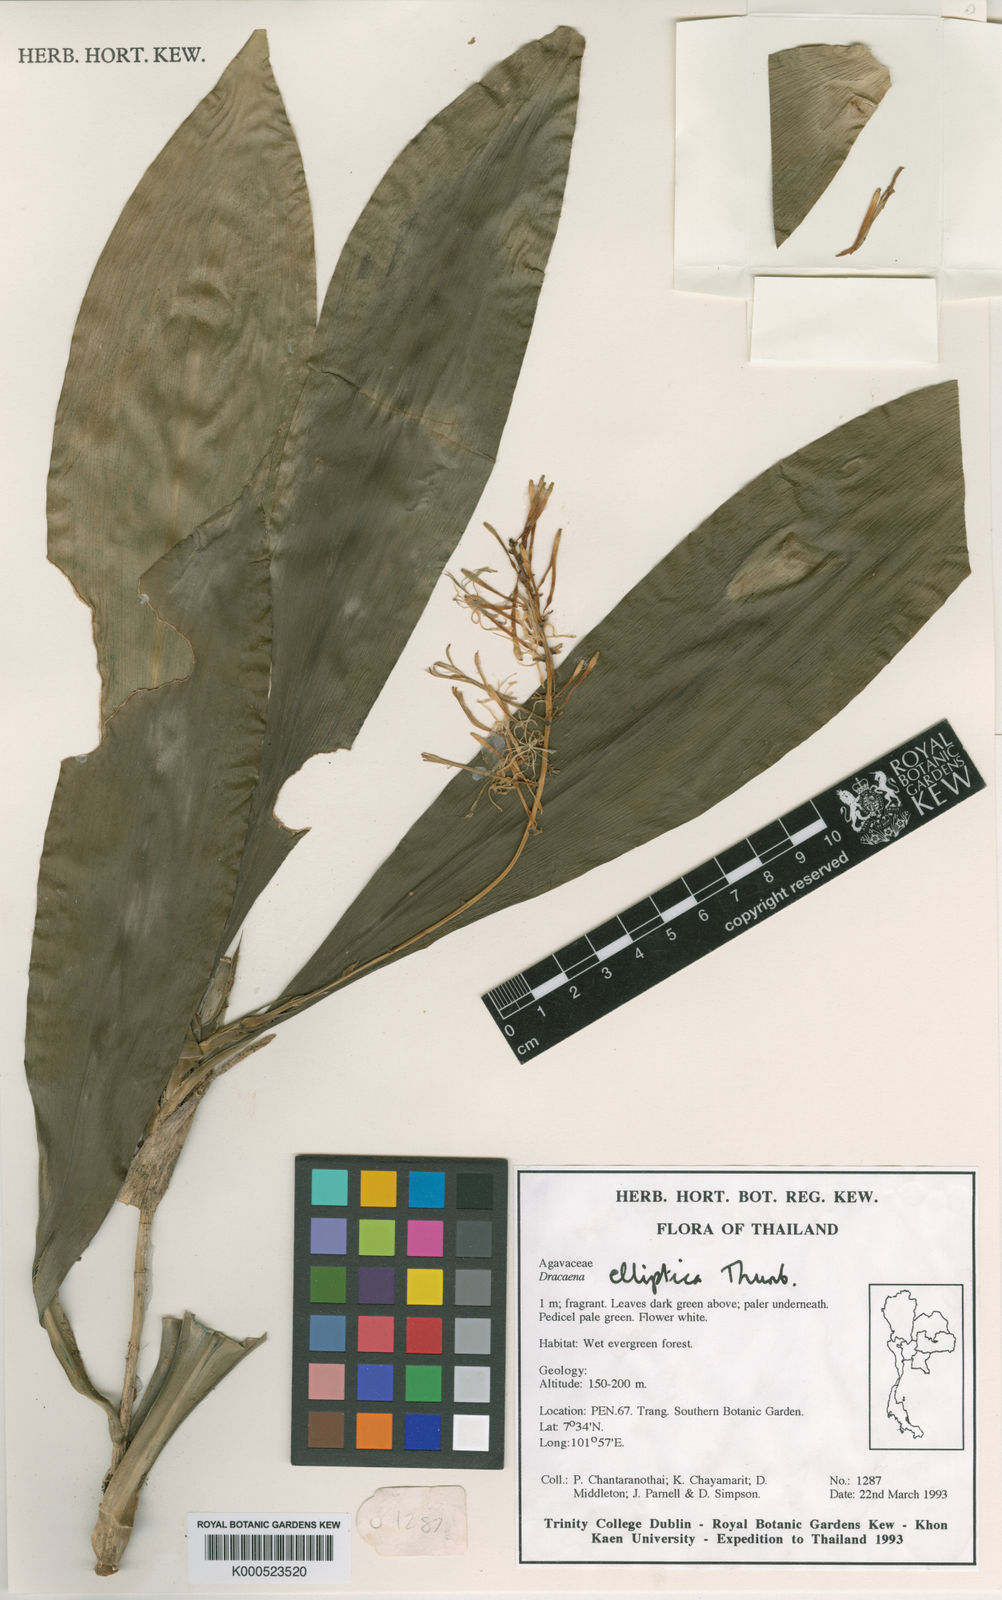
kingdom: Plantae
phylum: Tracheophyta
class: Liliopsida
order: Asparagales
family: Asparagaceae
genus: Dracaena
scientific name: Dracaena elliptica
